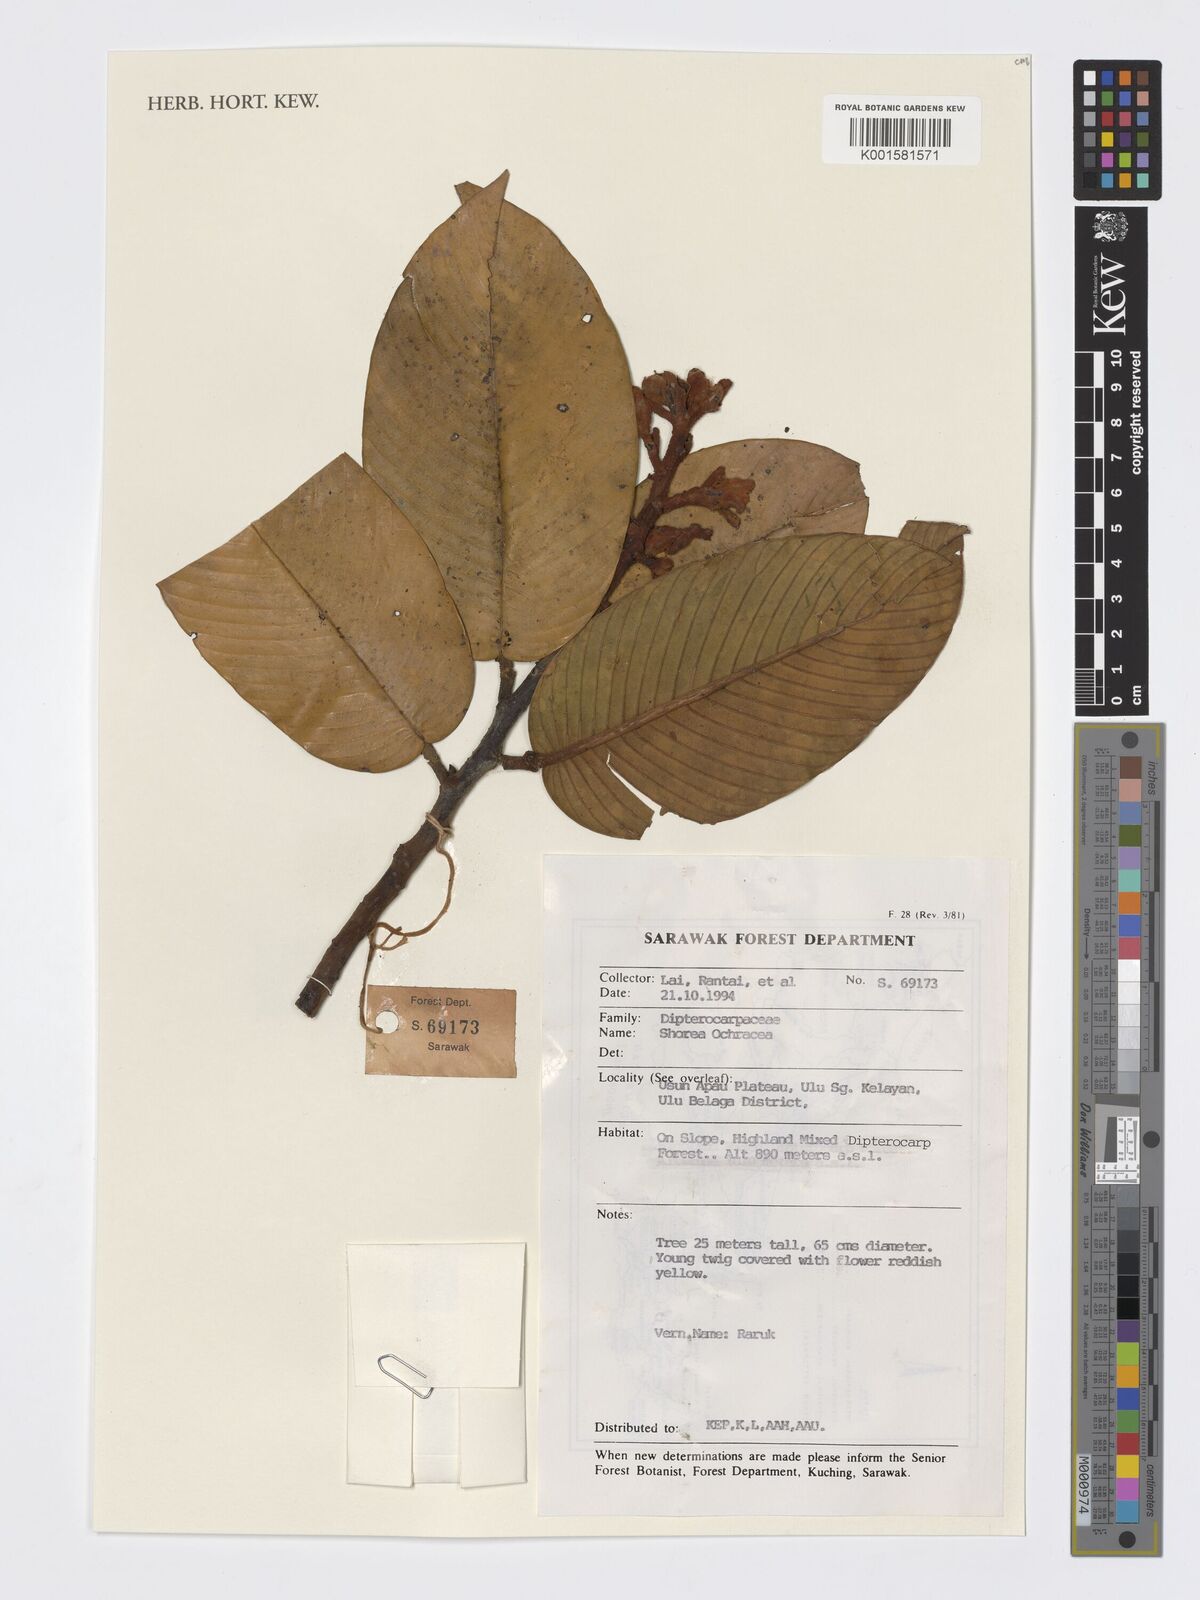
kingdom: Plantae
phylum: Tracheophyta
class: Magnoliopsida
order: Malvales
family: Dipterocarpaceae
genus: Anthoshorea
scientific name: Anthoshorea ochracea
